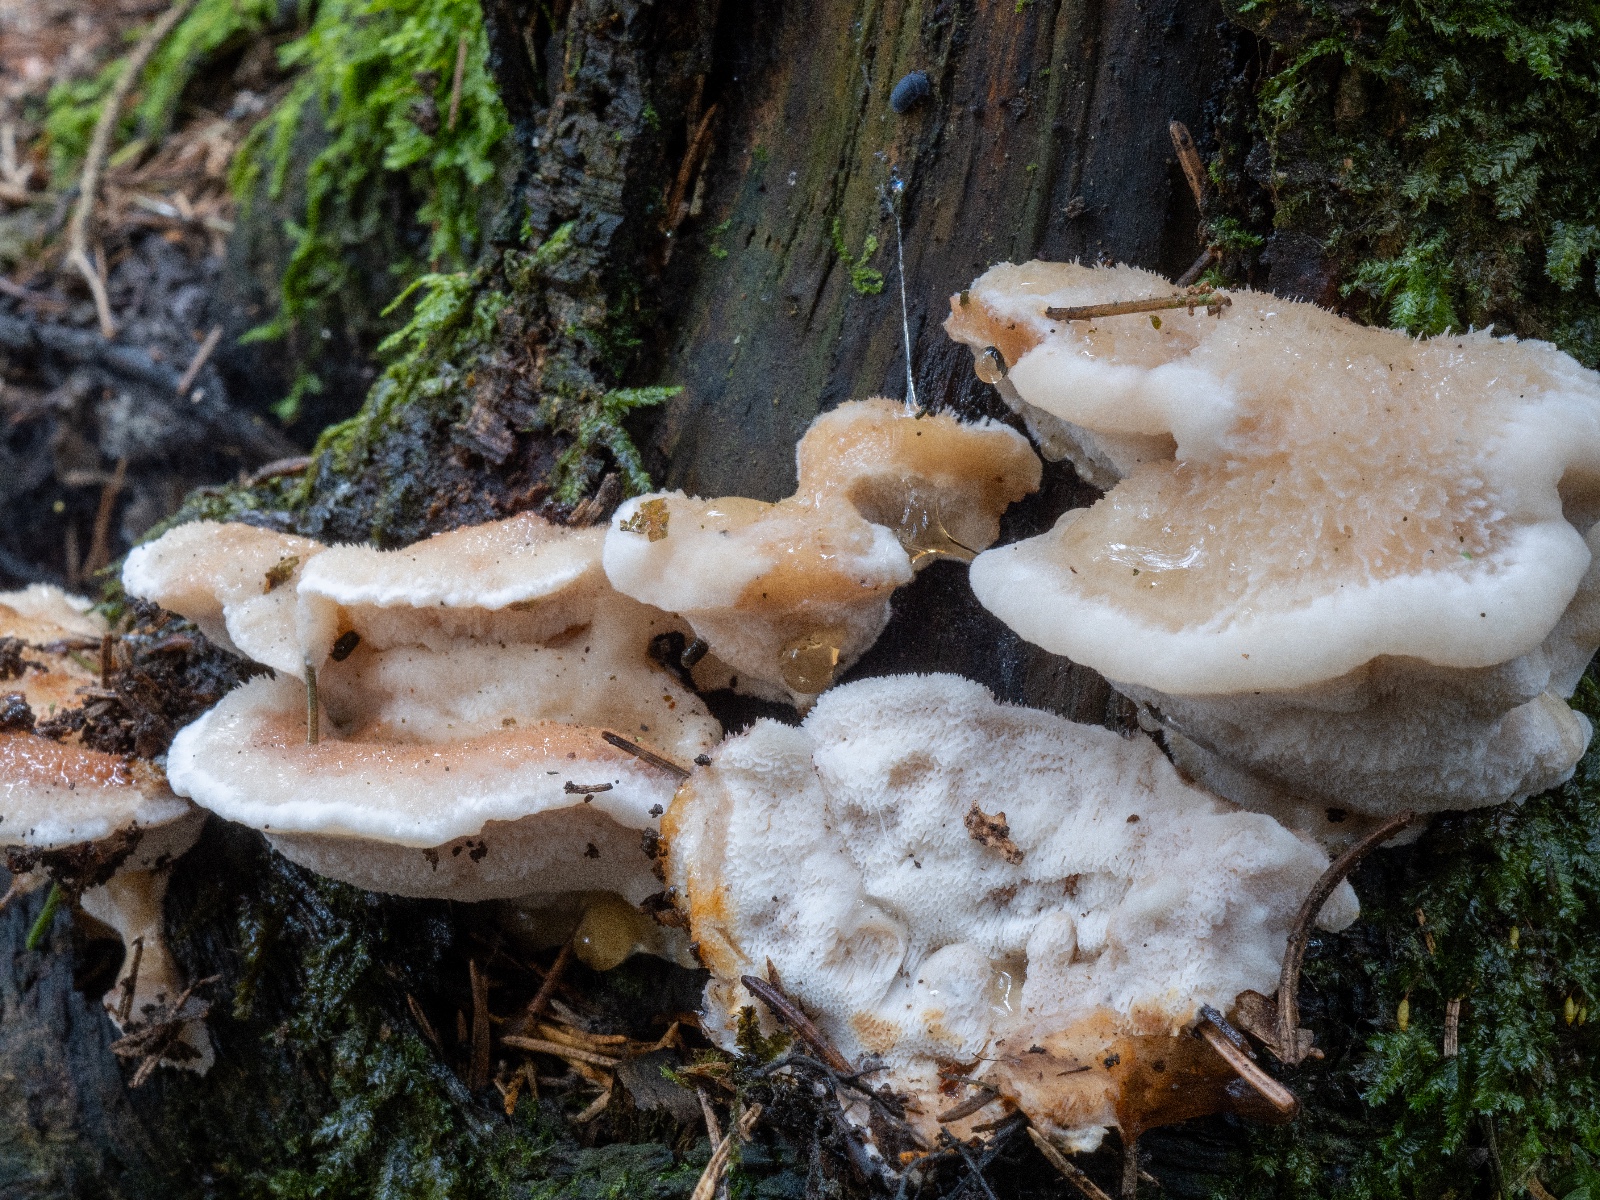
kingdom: Fungi
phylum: Basidiomycota
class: Agaricomycetes
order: Polyporales
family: Fomitopsidaceae
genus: Climacocystis
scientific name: Climacocystis borealis
